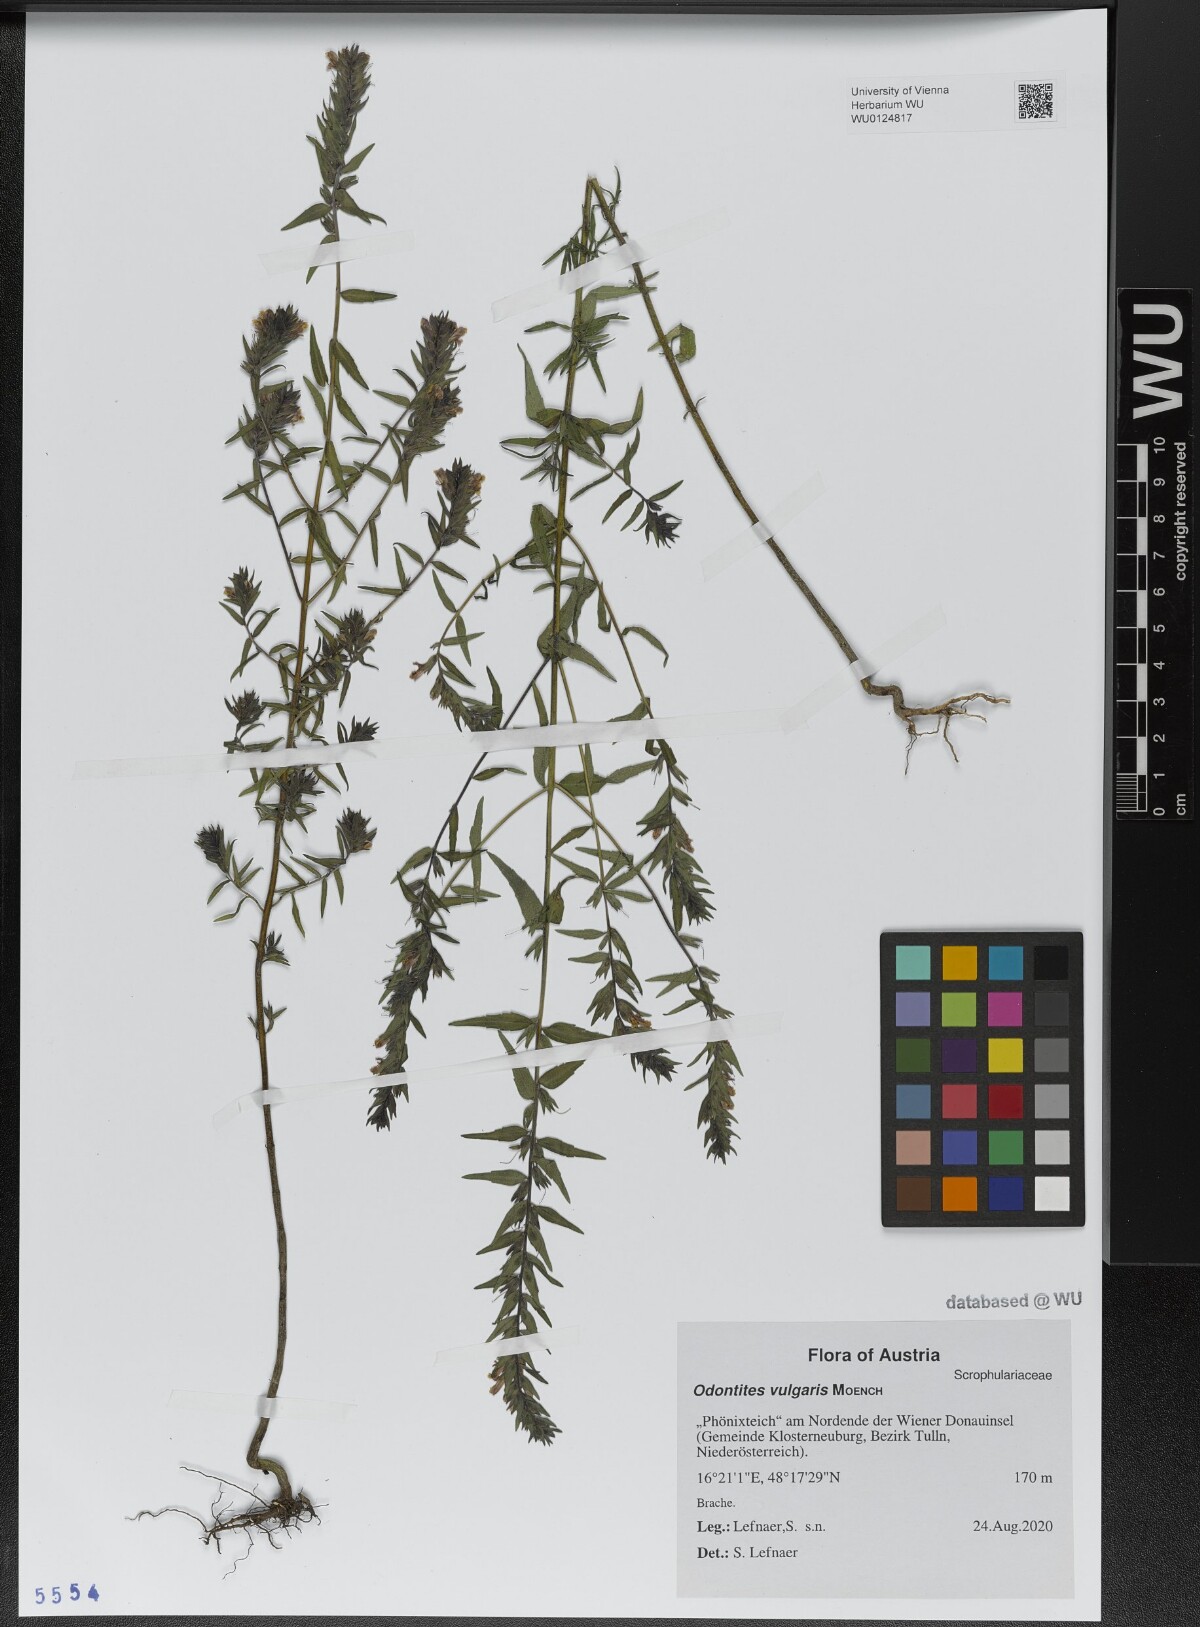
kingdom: Plantae
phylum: Tracheophyta
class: Magnoliopsida
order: Lamiales
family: Orobanchaceae
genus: Odontites
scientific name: Odontites vulgaris
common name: Broomrape
